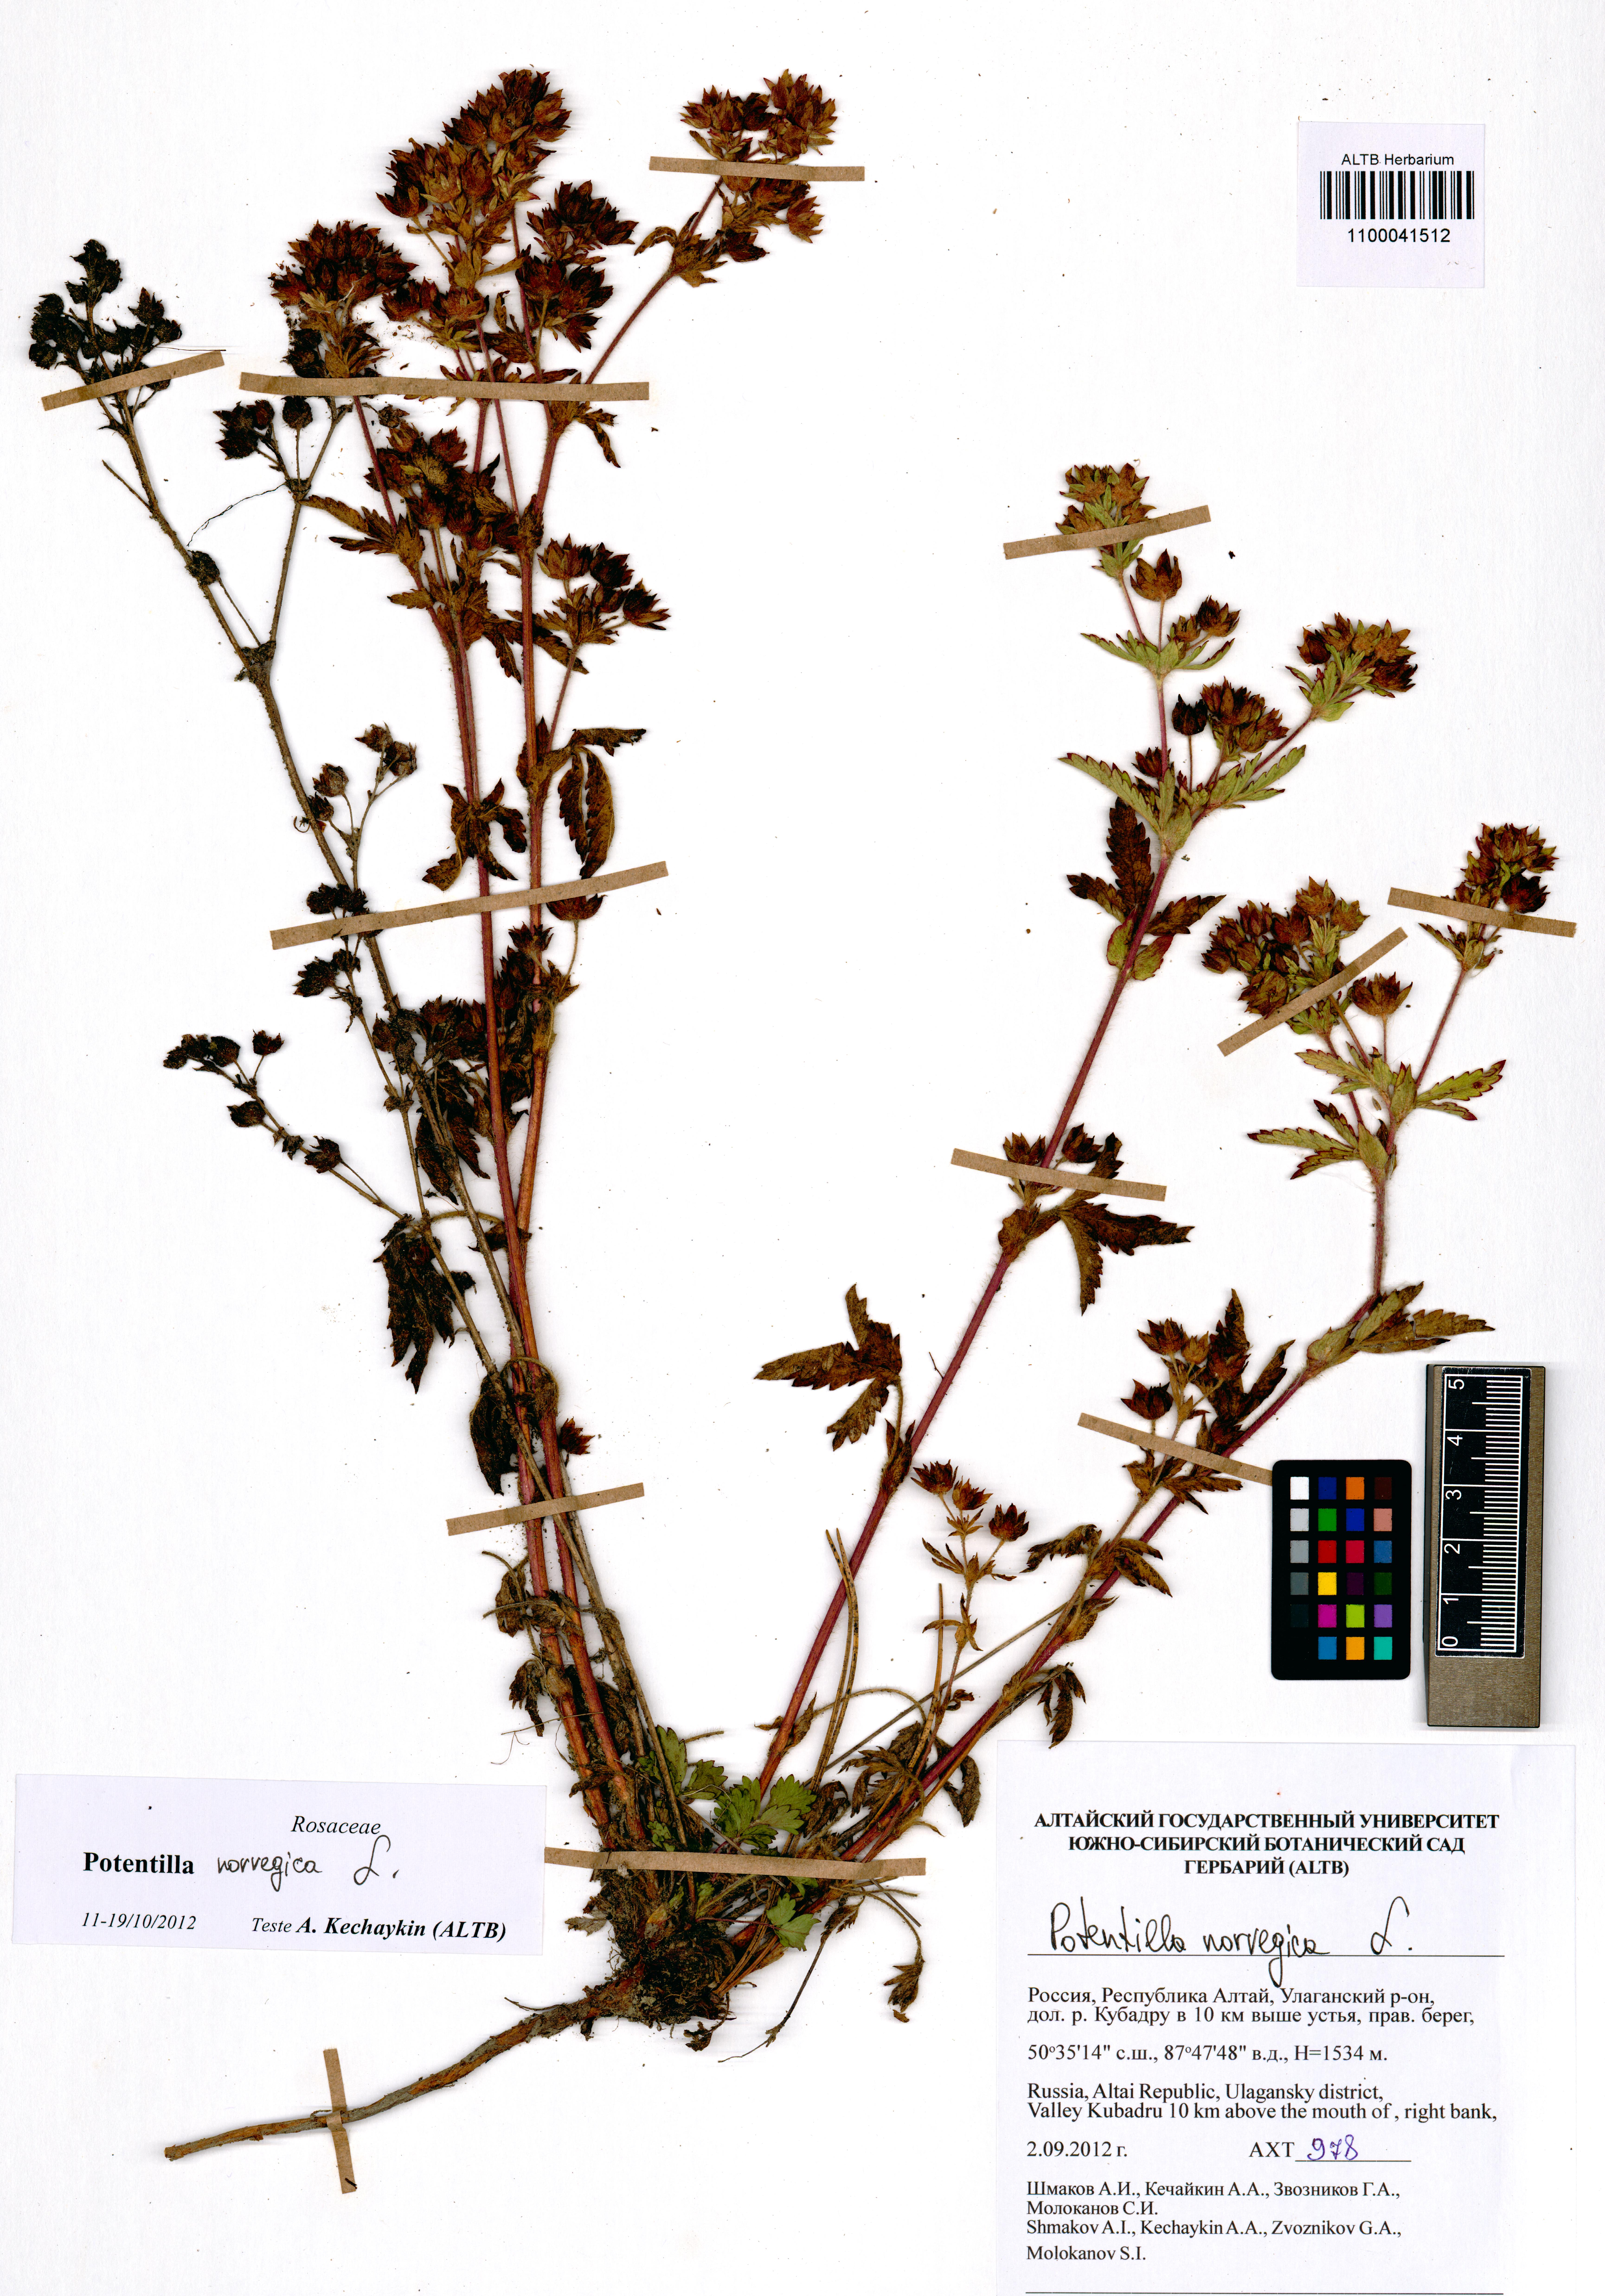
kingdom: Plantae
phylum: Tracheophyta
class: Magnoliopsida
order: Rosales
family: Rosaceae
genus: Potentilla
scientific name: Potentilla norvegica
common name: Ternate-leaved cinquefoil
